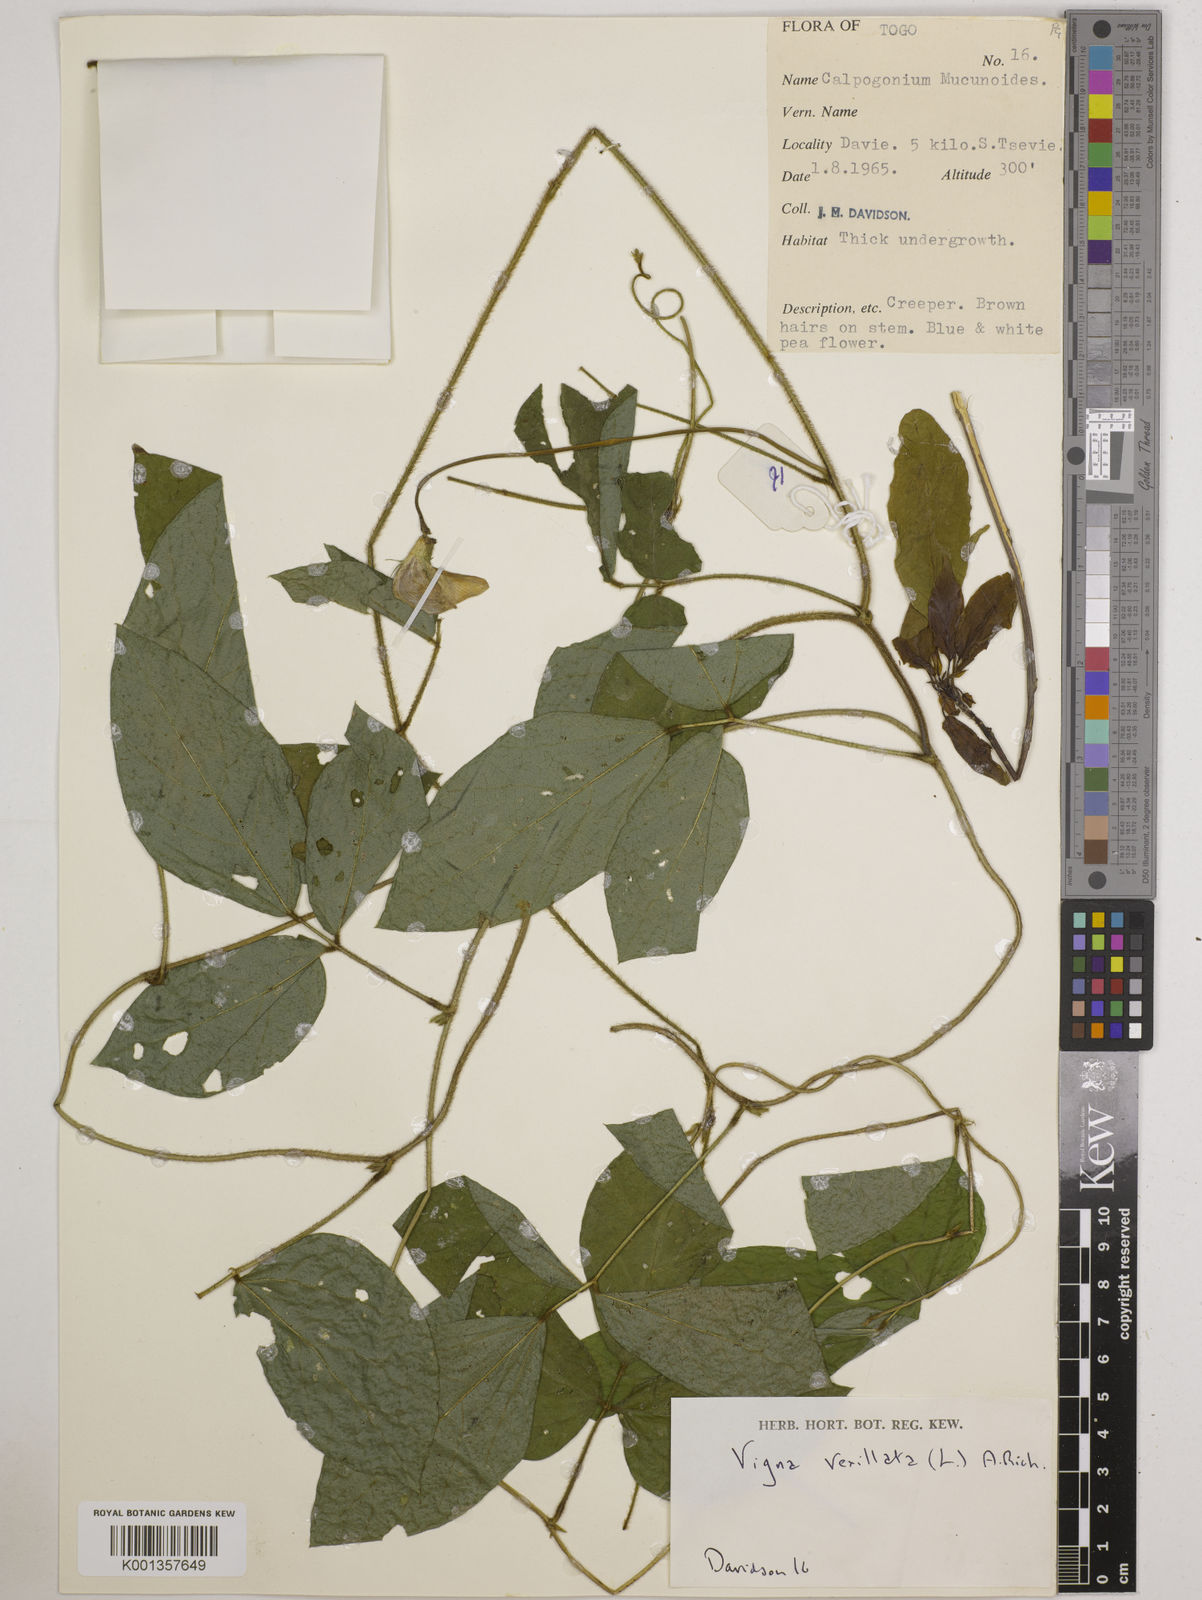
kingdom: Plantae
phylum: Tracheophyta
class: Magnoliopsida
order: Fabales
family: Fabaceae
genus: Vigna
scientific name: Vigna vexillata
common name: Zombi pea
